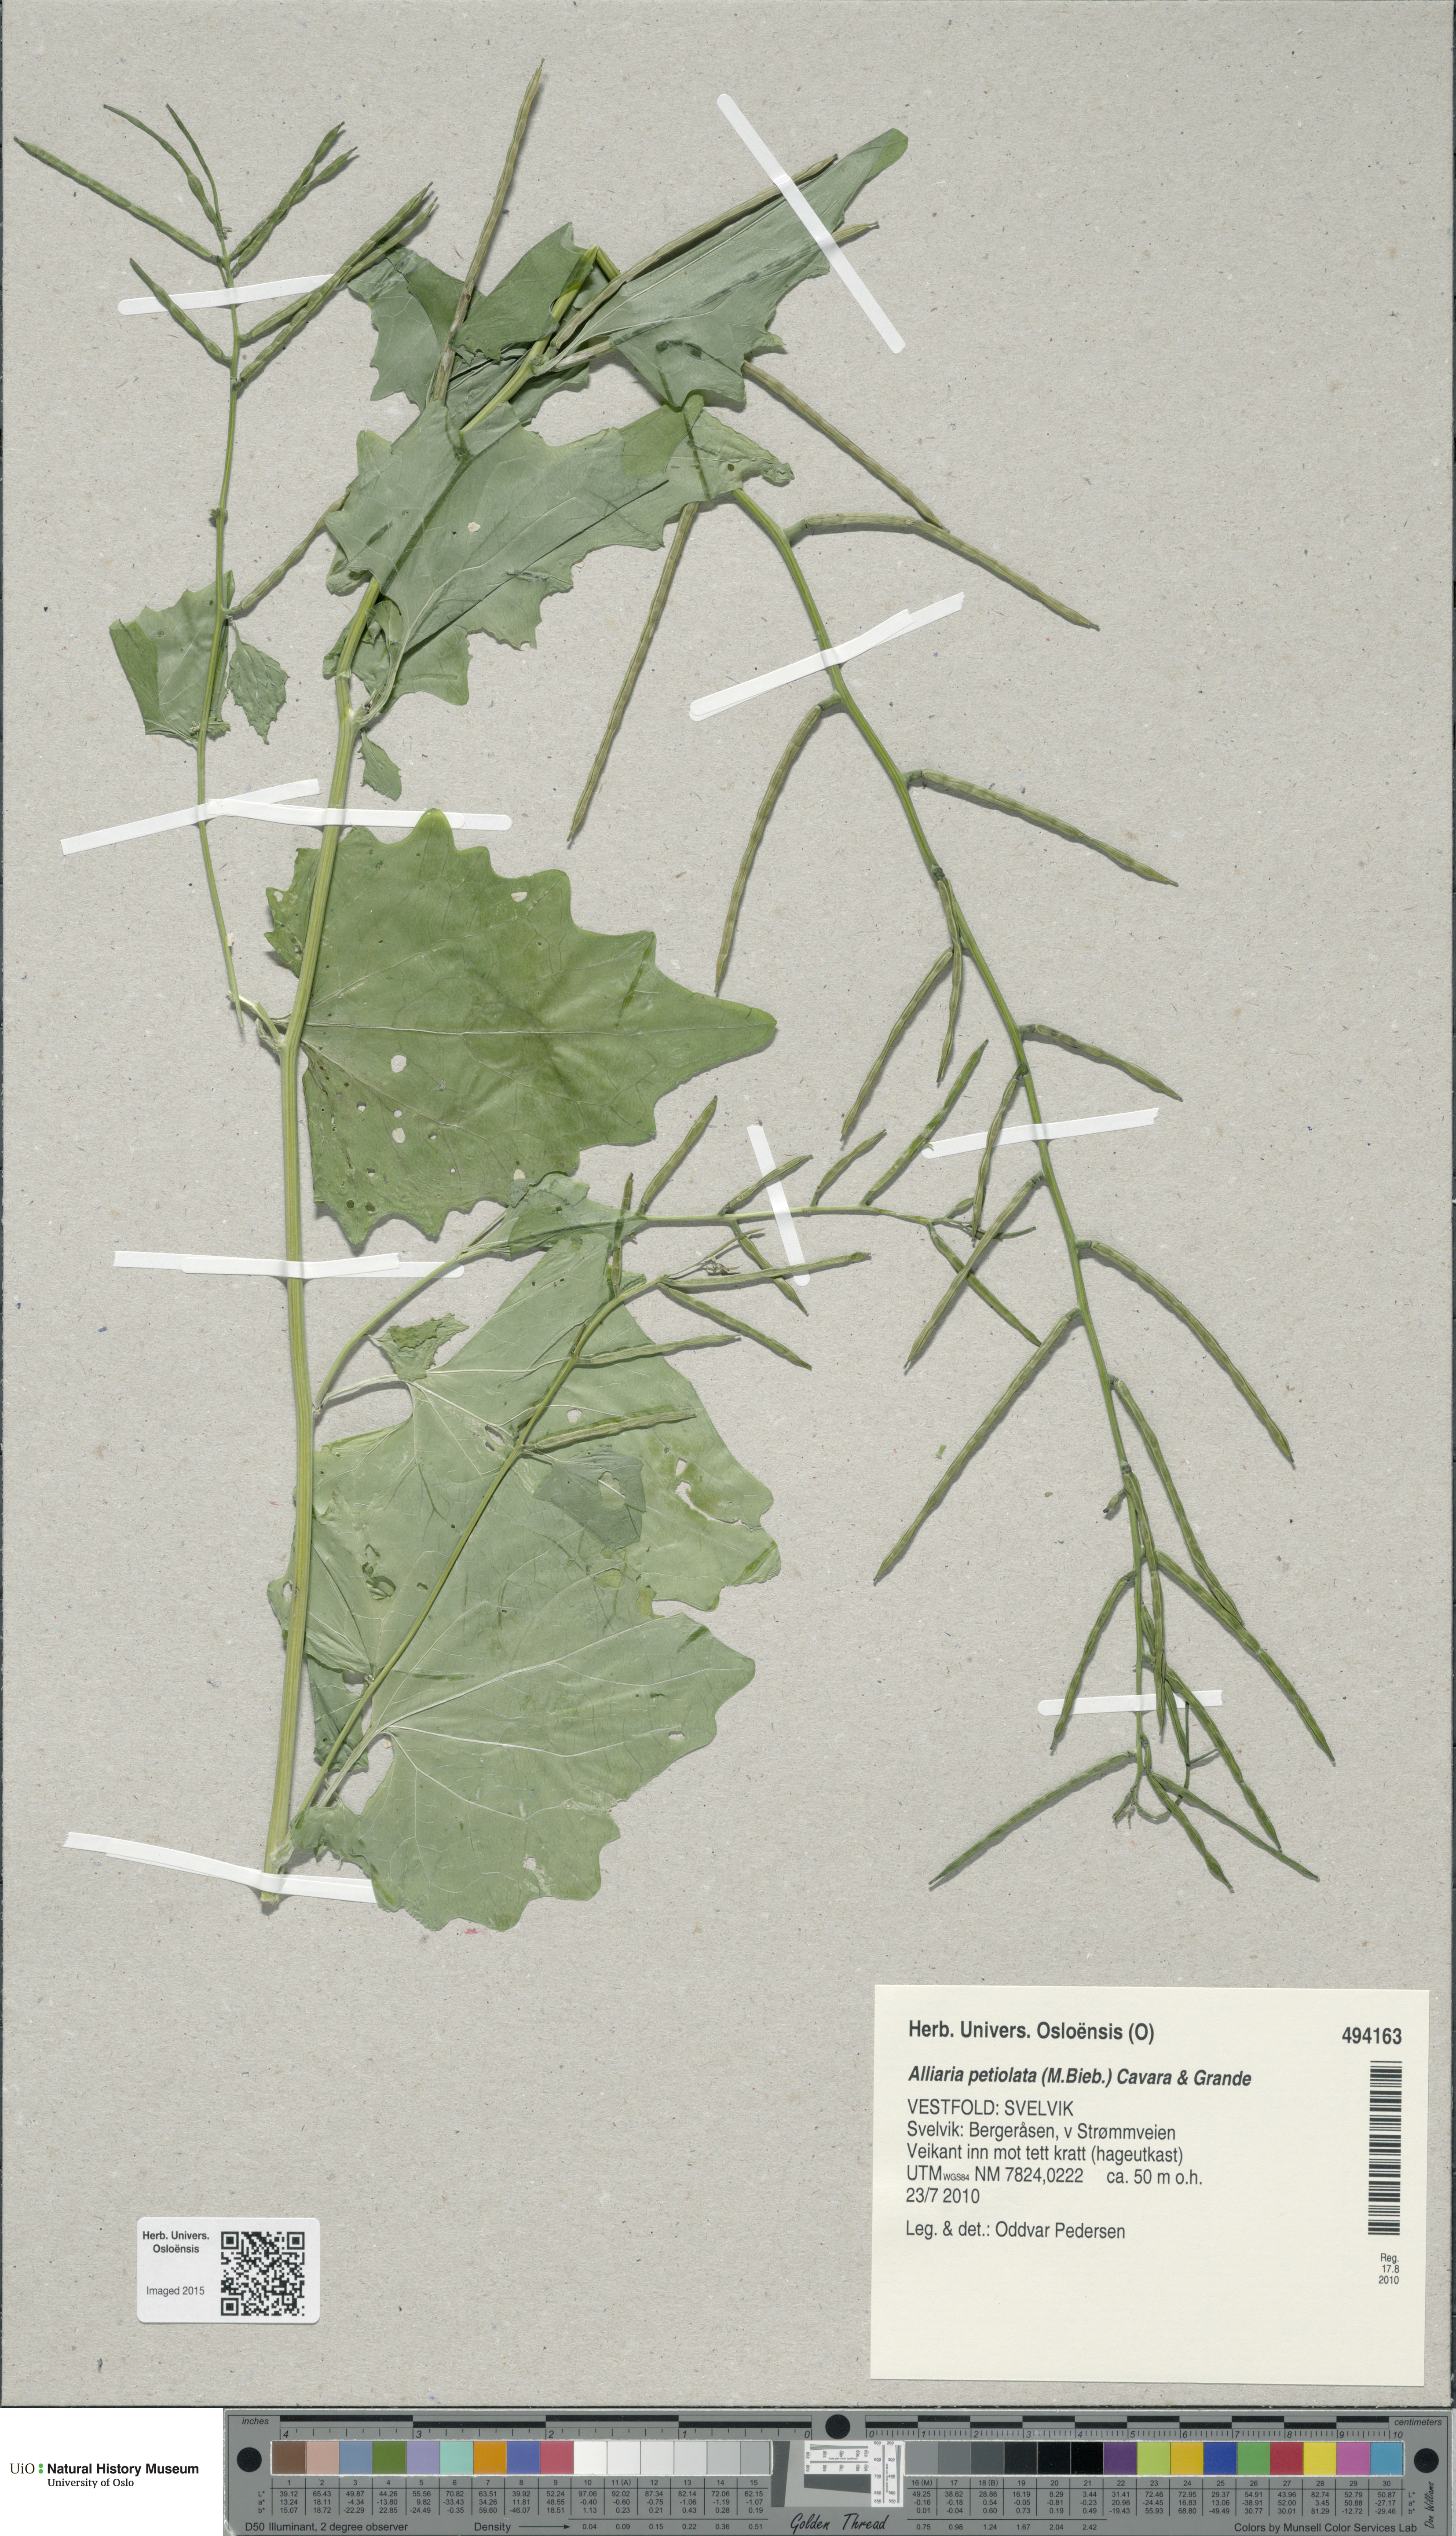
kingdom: Plantae
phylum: Tracheophyta
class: Magnoliopsida
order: Brassicales
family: Brassicaceae
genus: Alliaria
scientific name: Alliaria petiolata
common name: Garlic mustard
